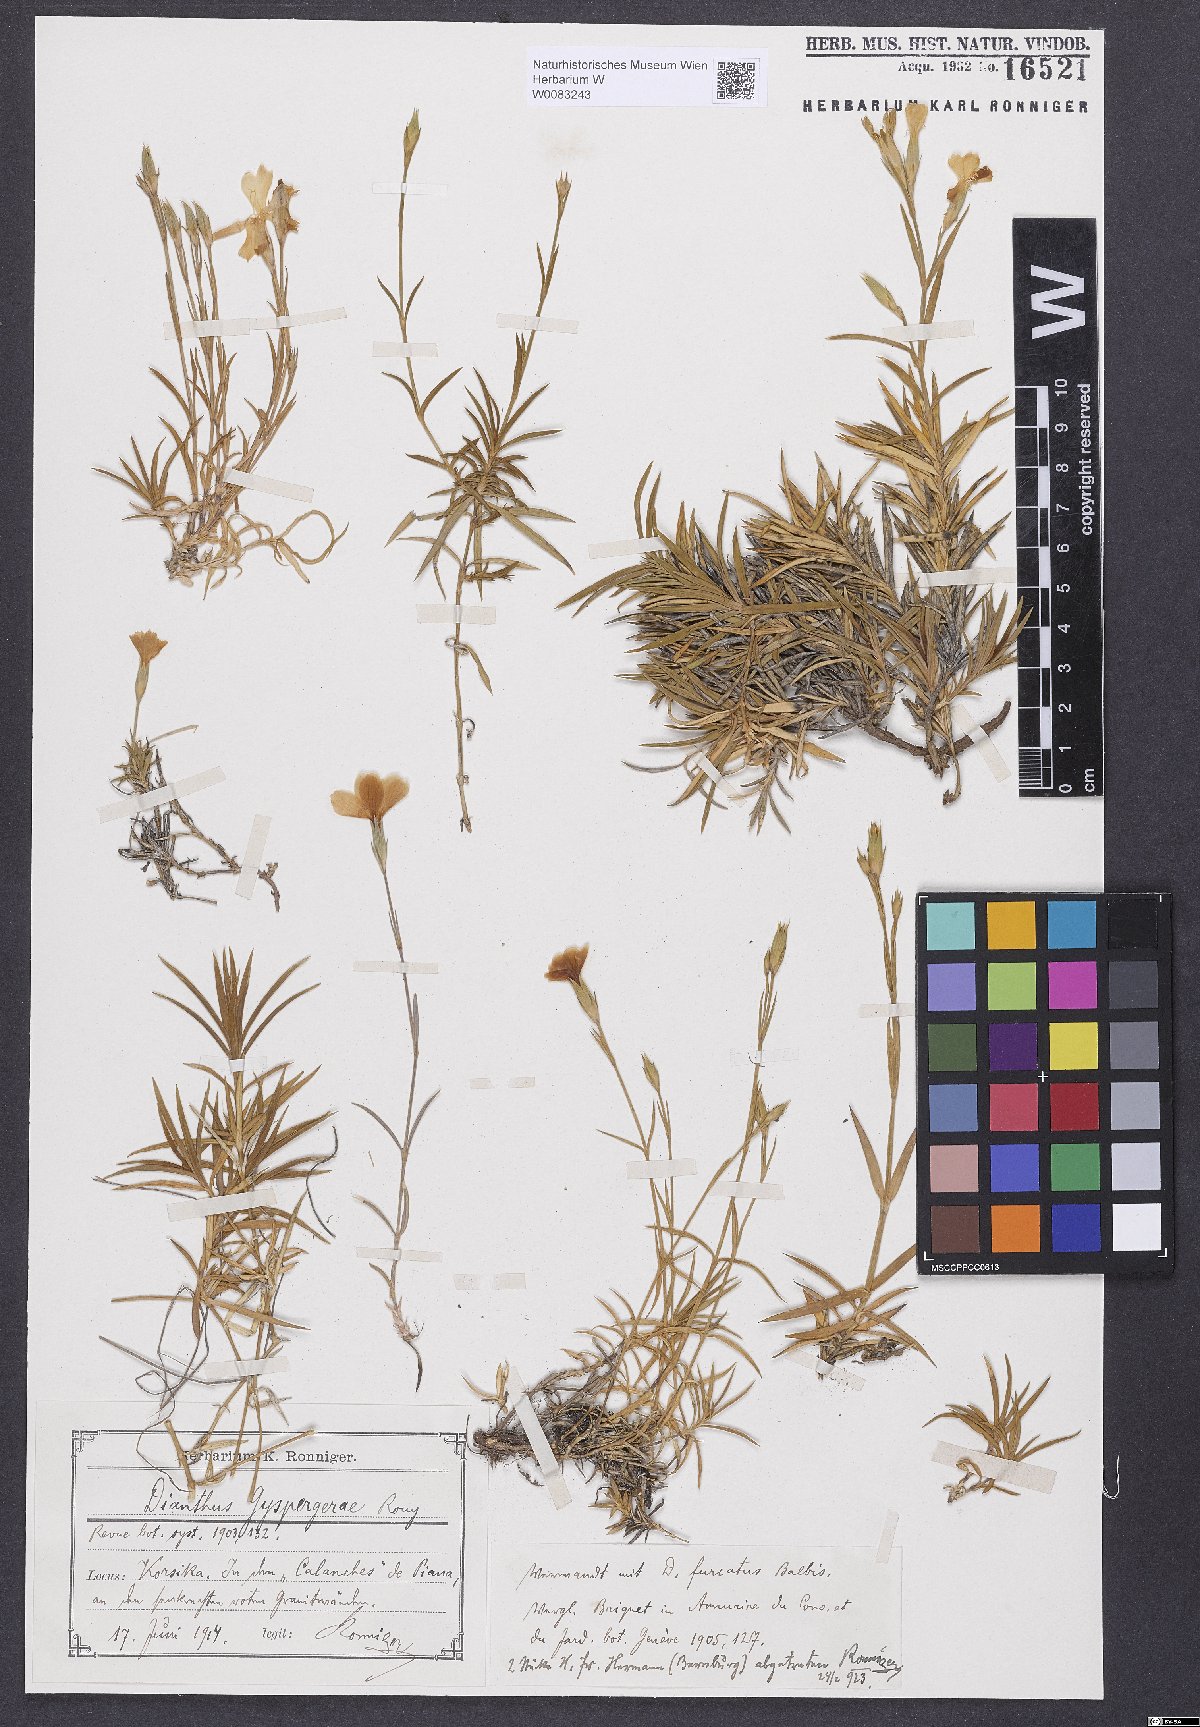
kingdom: Plantae
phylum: Tracheophyta
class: Magnoliopsida
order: Caryophyllales
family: Caryophyllaceae
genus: Dianthus
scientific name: Dianthus furcatus
